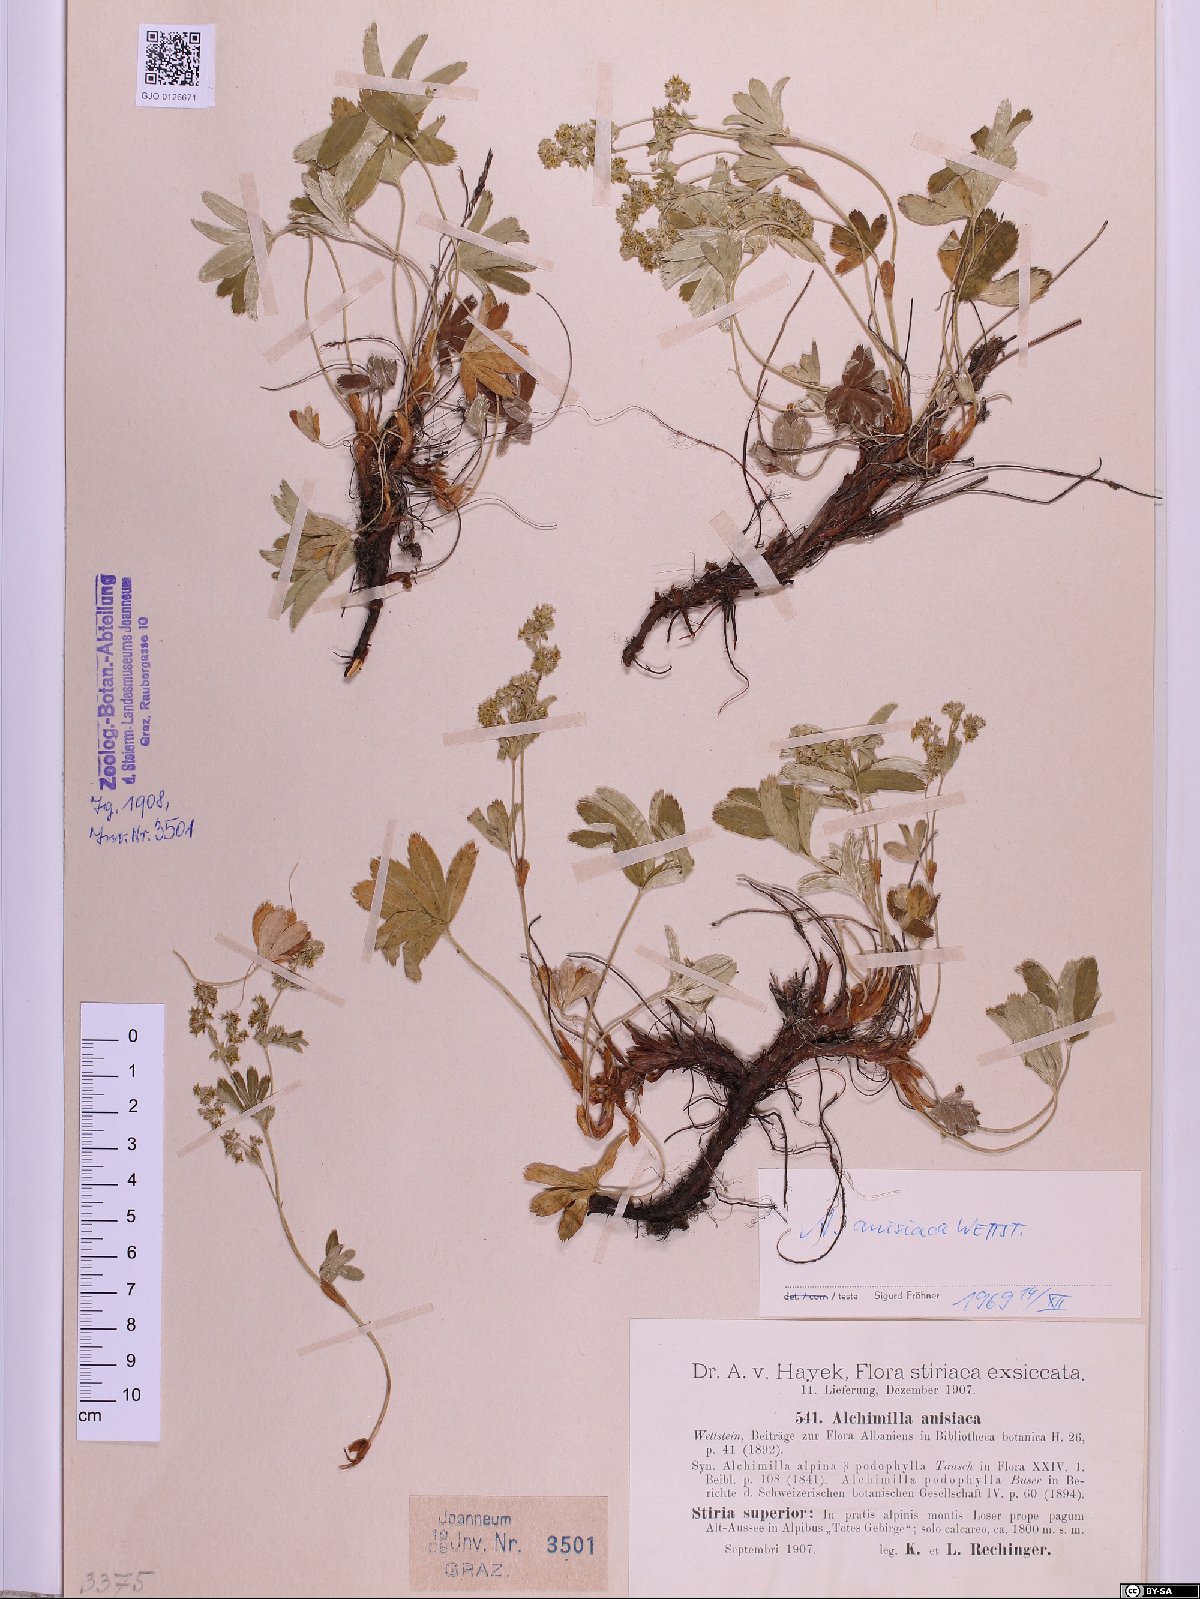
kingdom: Plantae
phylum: Tracheophyta
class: Magnoliopsida
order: Rosales
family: Rosaceae
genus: Alchemilla
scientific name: Alchemilla anisiaca
